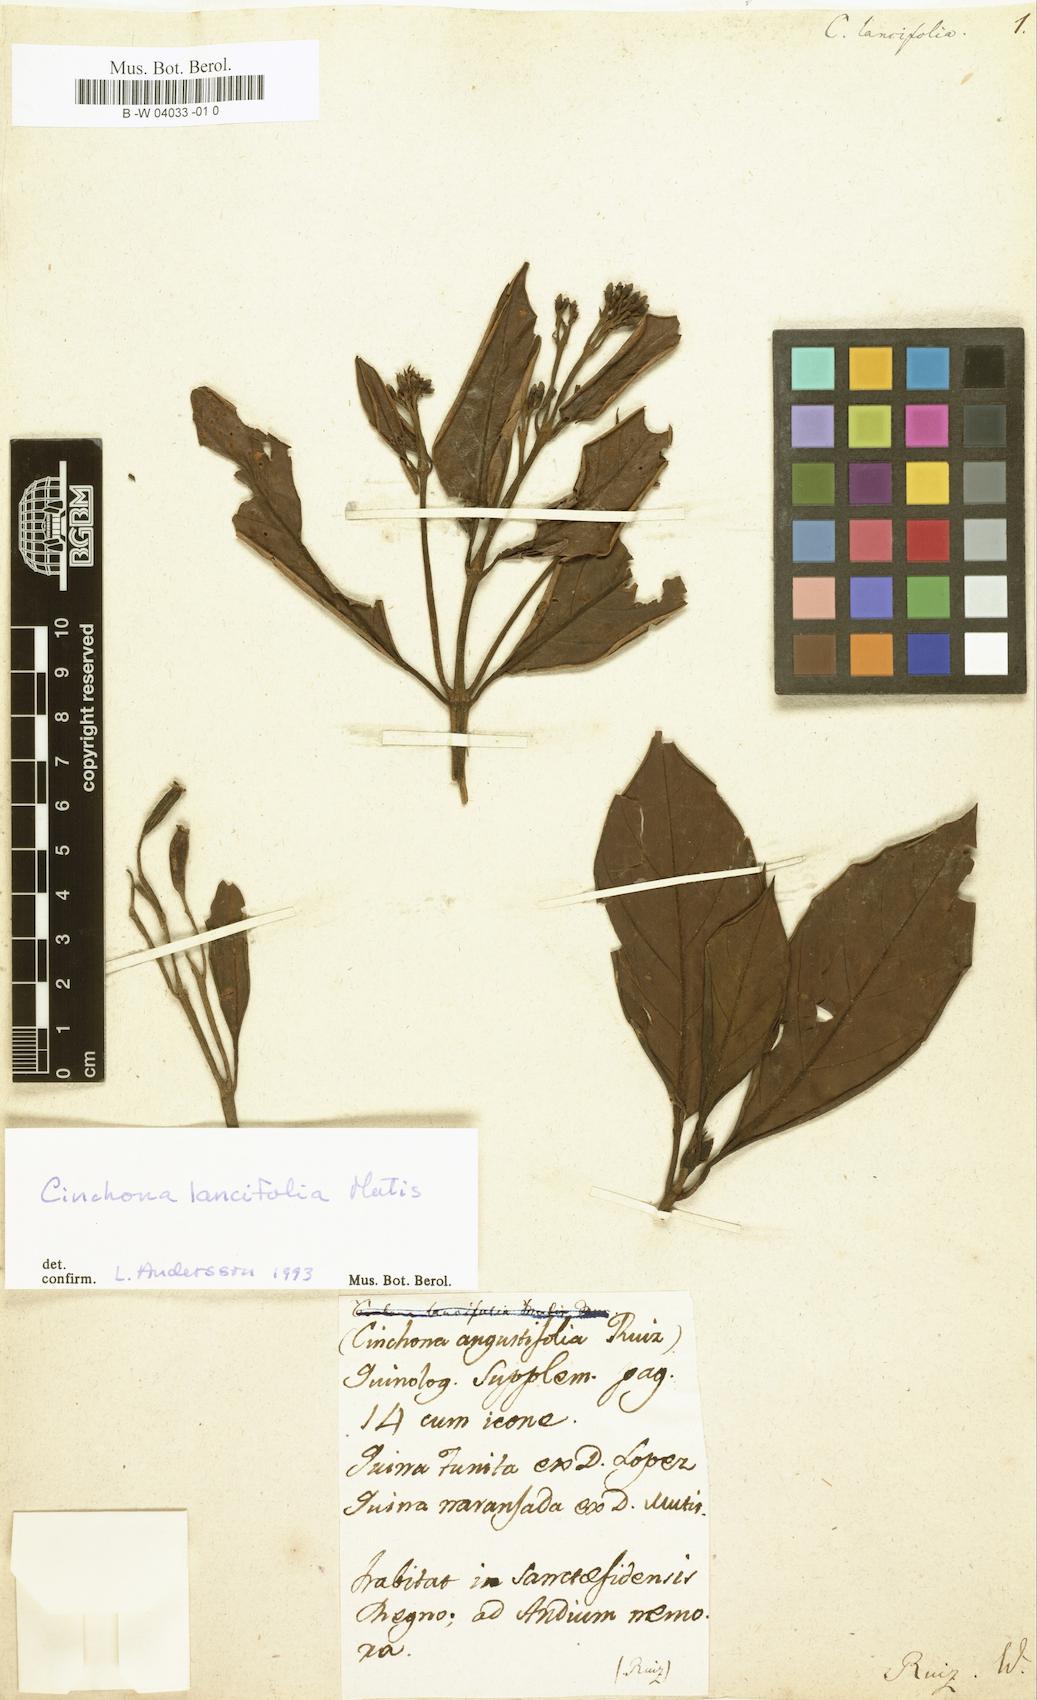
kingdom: Plantae
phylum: Tracheophyta
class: Magnoliopsida
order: Gentianales
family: Rubiaceae
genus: Cinchona
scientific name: Cinchona lancifolia
